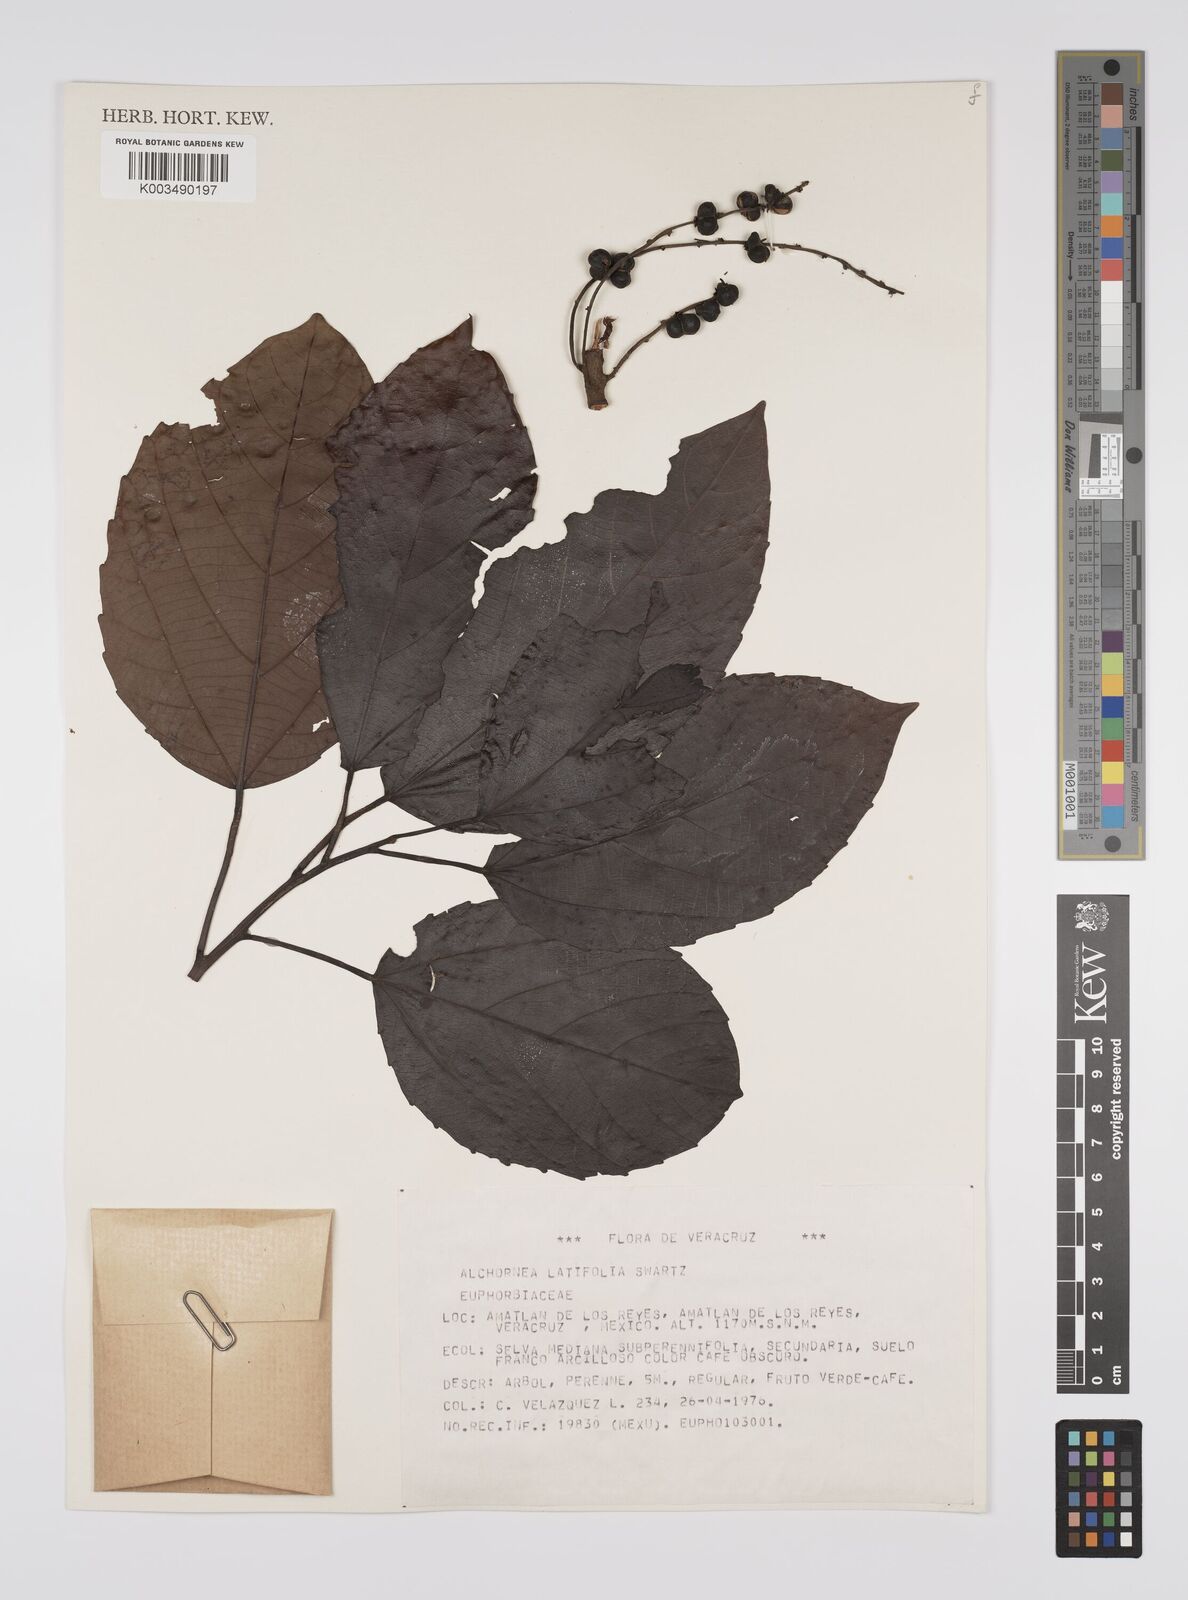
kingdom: Plantae
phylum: Tracheophyta
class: Magnoliopsida
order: Malpighiales
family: Euphorbiaceae
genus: Alchornea
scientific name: Alchornea latifolia
